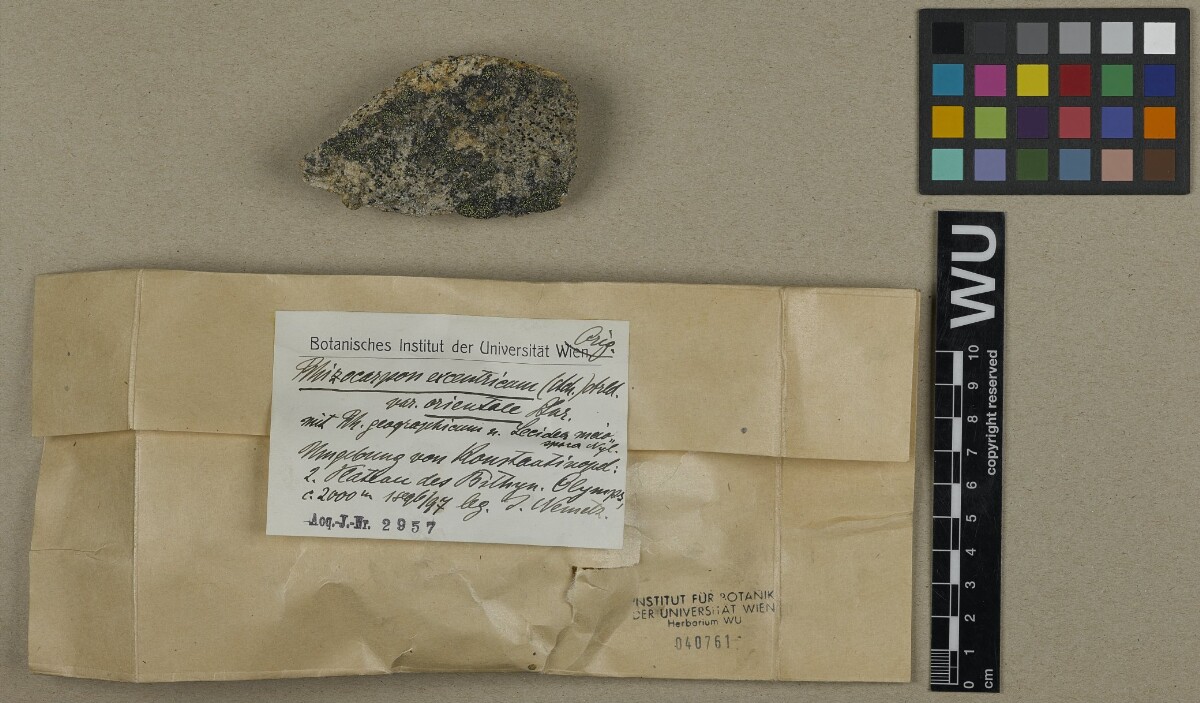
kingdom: Fungi
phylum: Ascomycota
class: Lecanoromycetes
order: Rhizocarpales
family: Rhizocarpaceae
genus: Rhizocarpon
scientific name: Rhizocarpon petraeum
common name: Rock-loving map lichen
